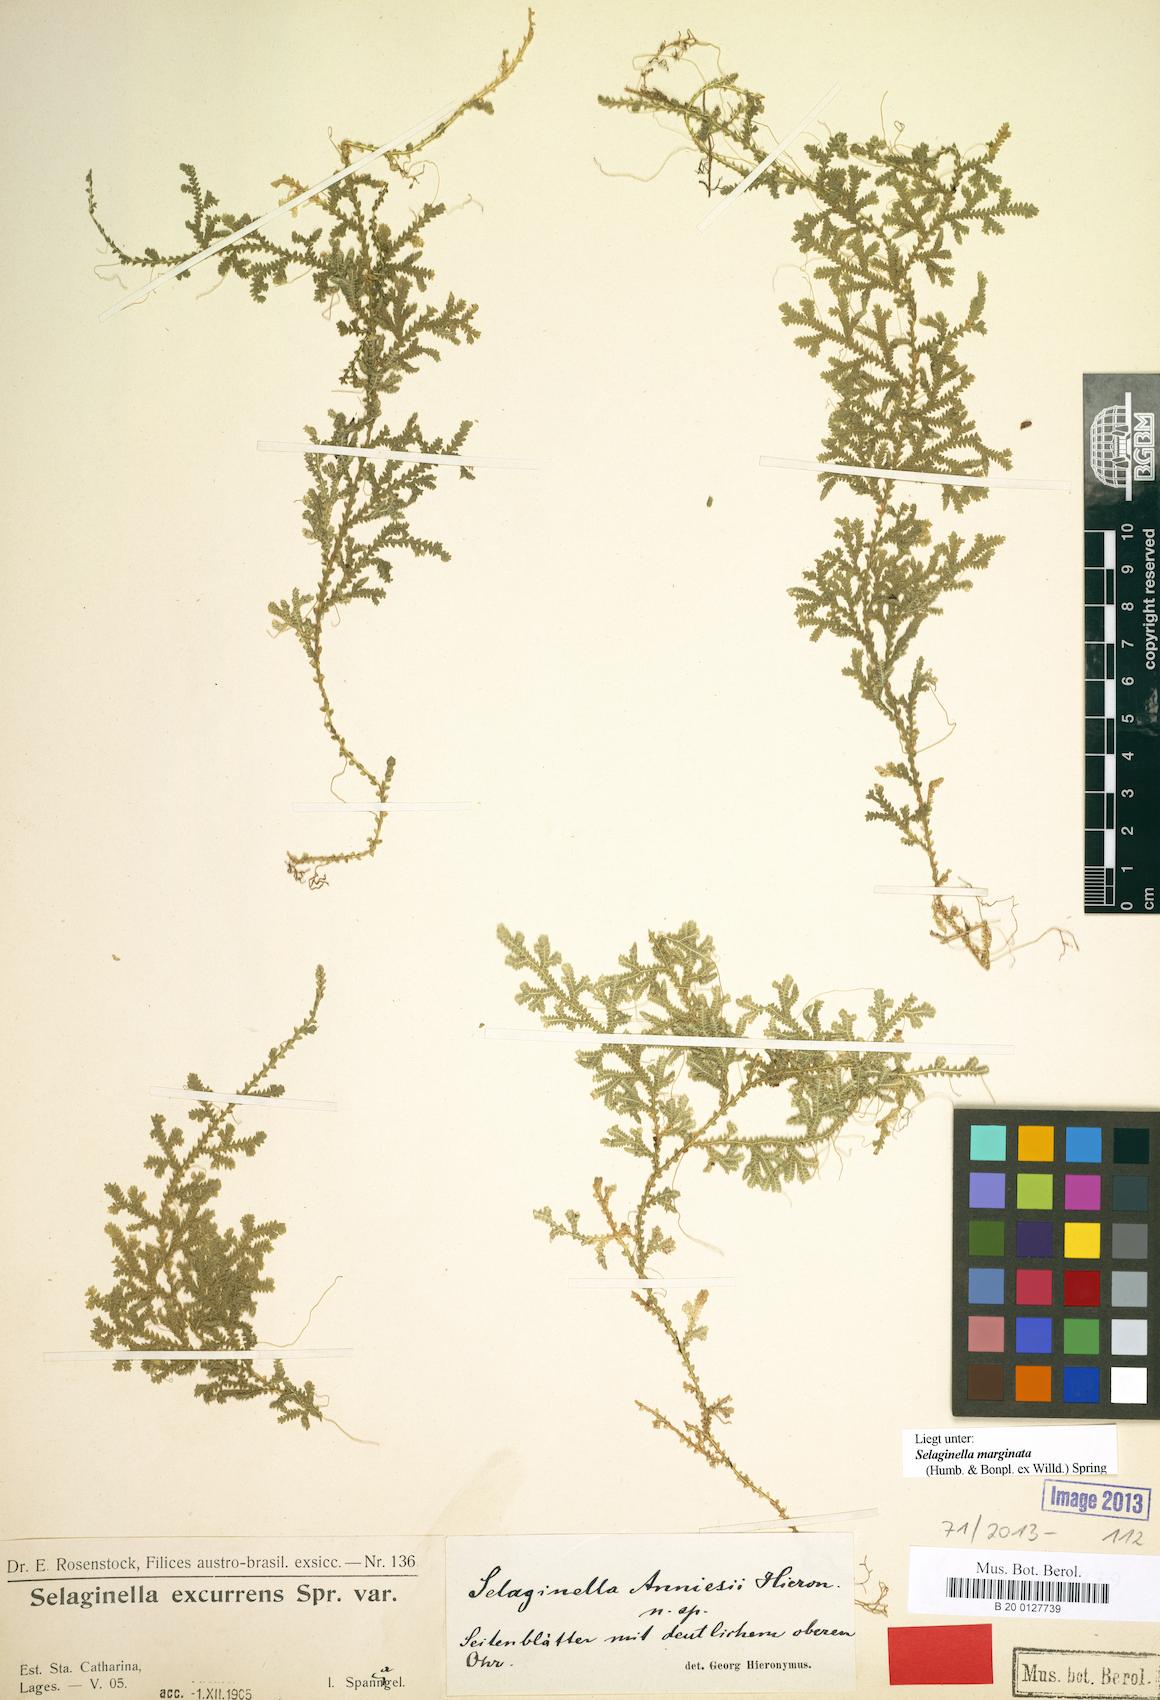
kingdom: Plantae
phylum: Tracheophyta
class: Lycopodiopsida
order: Selaginellales
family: Selaginellaceae
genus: Selaginella
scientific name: Selaginella marginata
